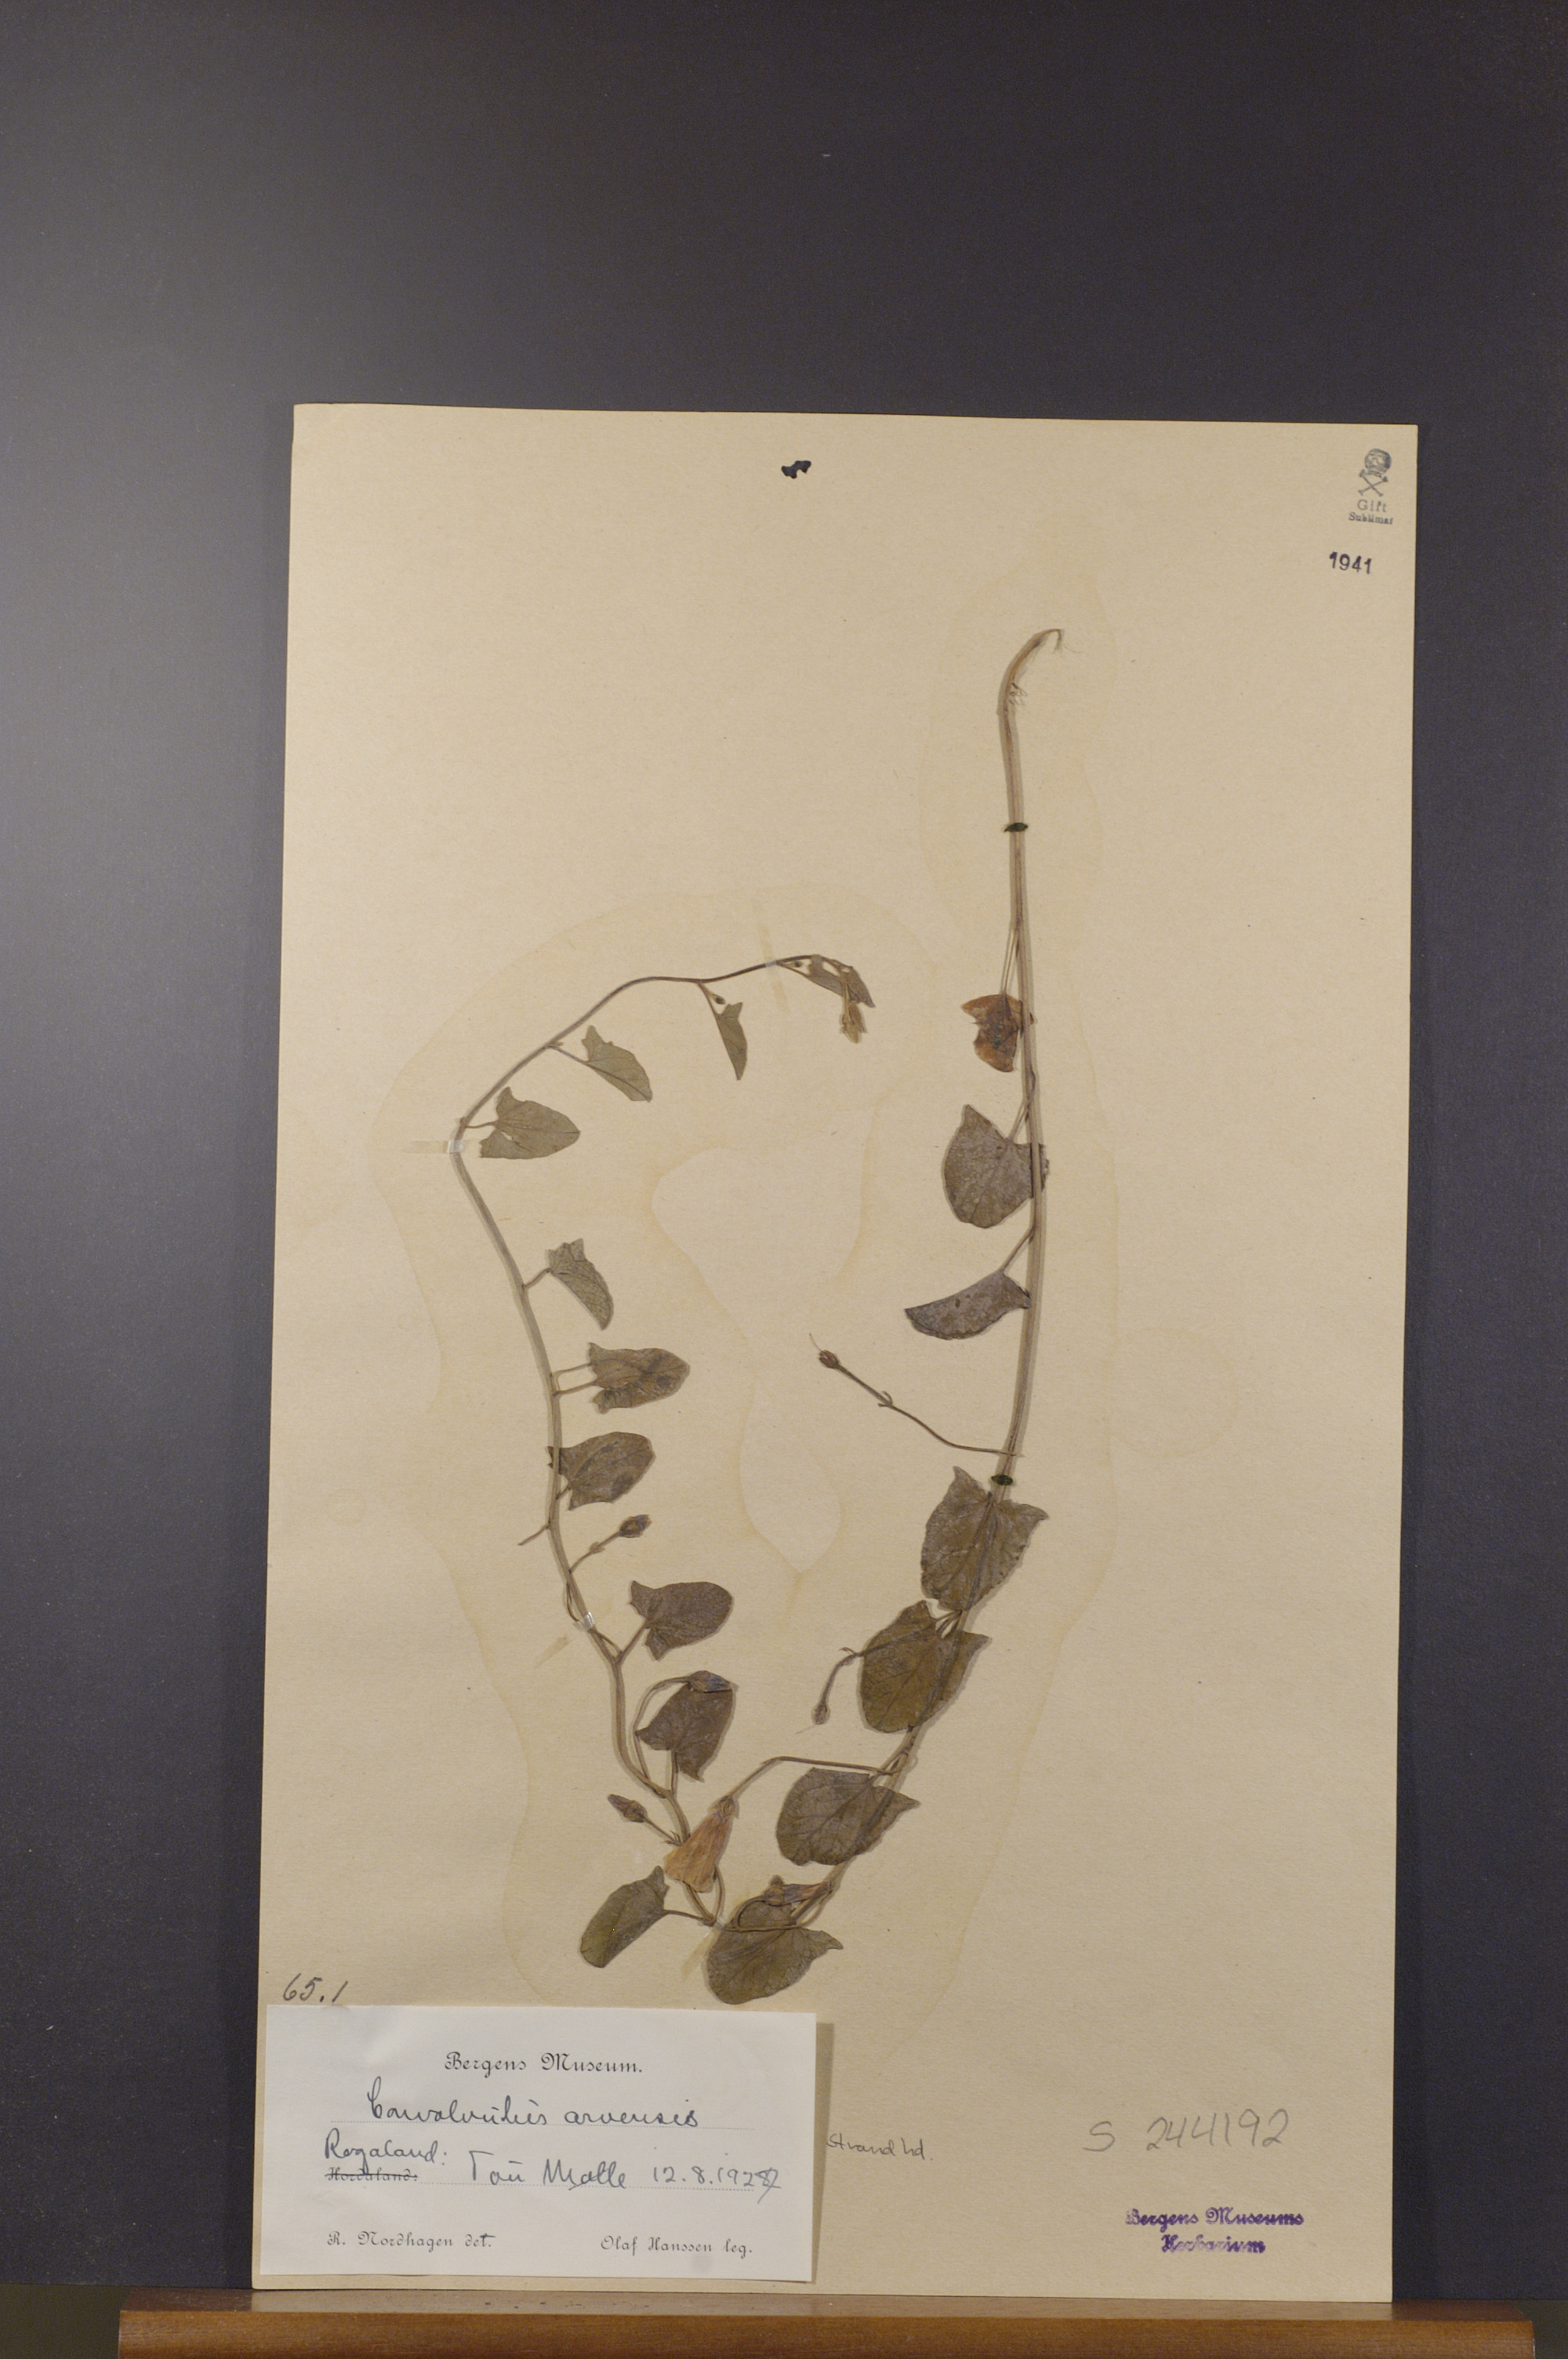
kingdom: Plantae
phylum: Tracheophyta
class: Magnoliopsida
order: Solanales
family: Convolvulaceae
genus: Convolvulus
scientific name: Convolvulus arvensis
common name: Field bindweed
